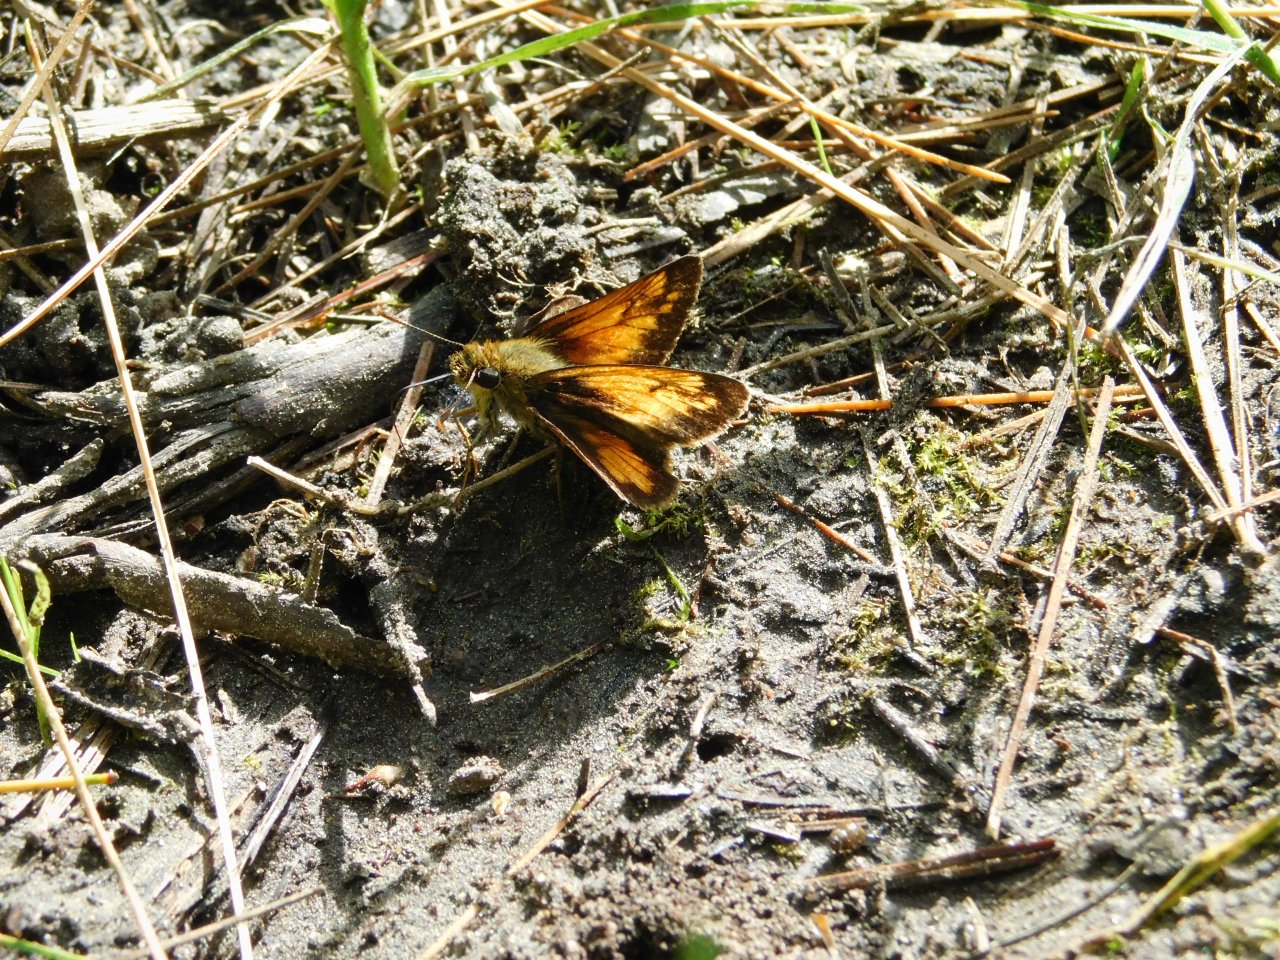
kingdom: Animalia
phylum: Arthropoda
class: Insecta
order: Lepidoptera
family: Hesperiidae
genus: Lon
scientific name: Lon hobomok
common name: Hobomok Skipper
